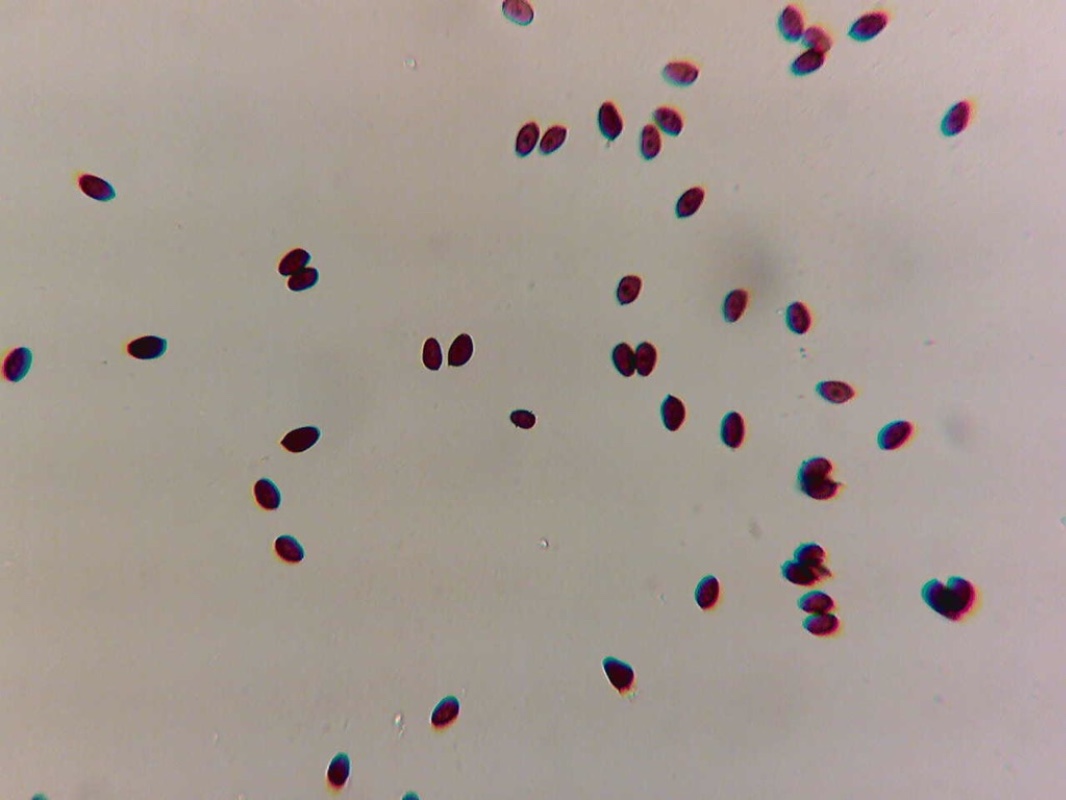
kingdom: Fungi
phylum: Basidiomycota
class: Agaricomycetes
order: Agaricales
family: Psathyrellaceae
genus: Coprinopsis
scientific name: Coprinopsis cinerea
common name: mødding-blækhat
